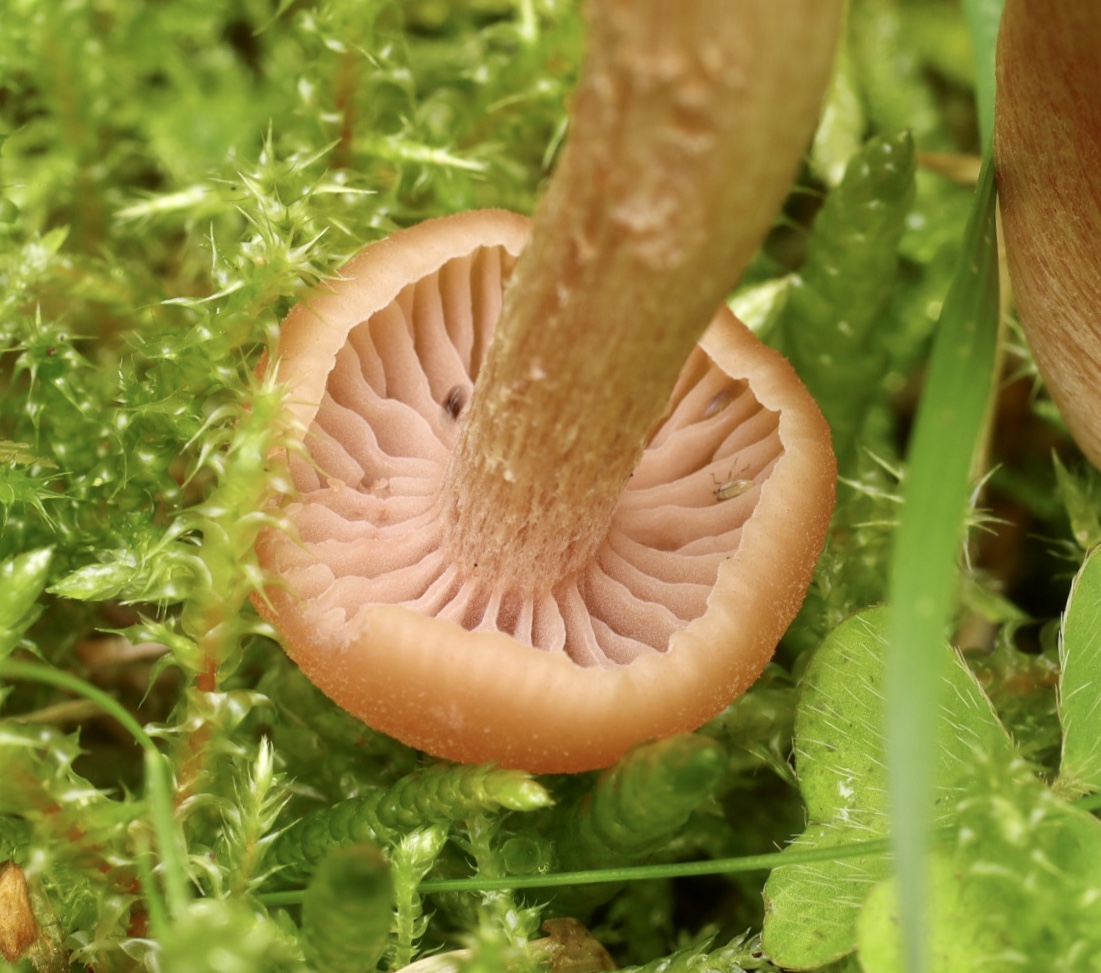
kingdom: Fungi
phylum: Basidiomycota
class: Agaricomycetes
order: Agaricales
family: Hydnangiaceae
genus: Laccaria
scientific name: Laccaria laccata
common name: rød ametysthat
